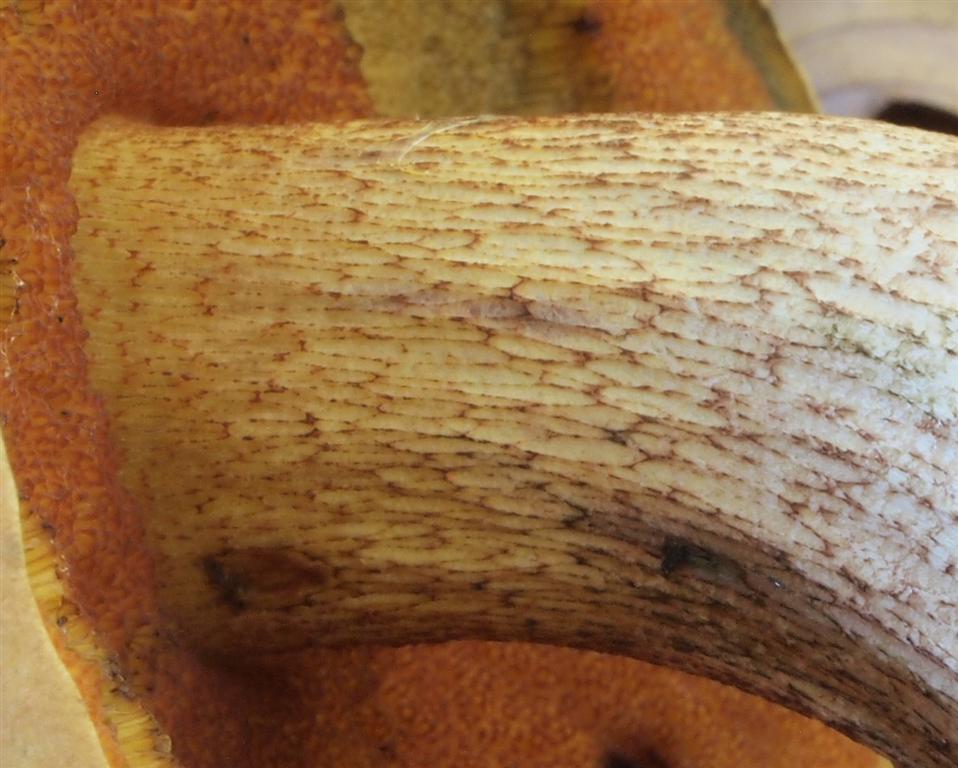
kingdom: Fungi
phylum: Basidiomycota
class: Agaricomycetes
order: Boletales
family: Boletaceae
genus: Suillellus
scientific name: Suillellus luridus
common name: netstokket indigorørhat
